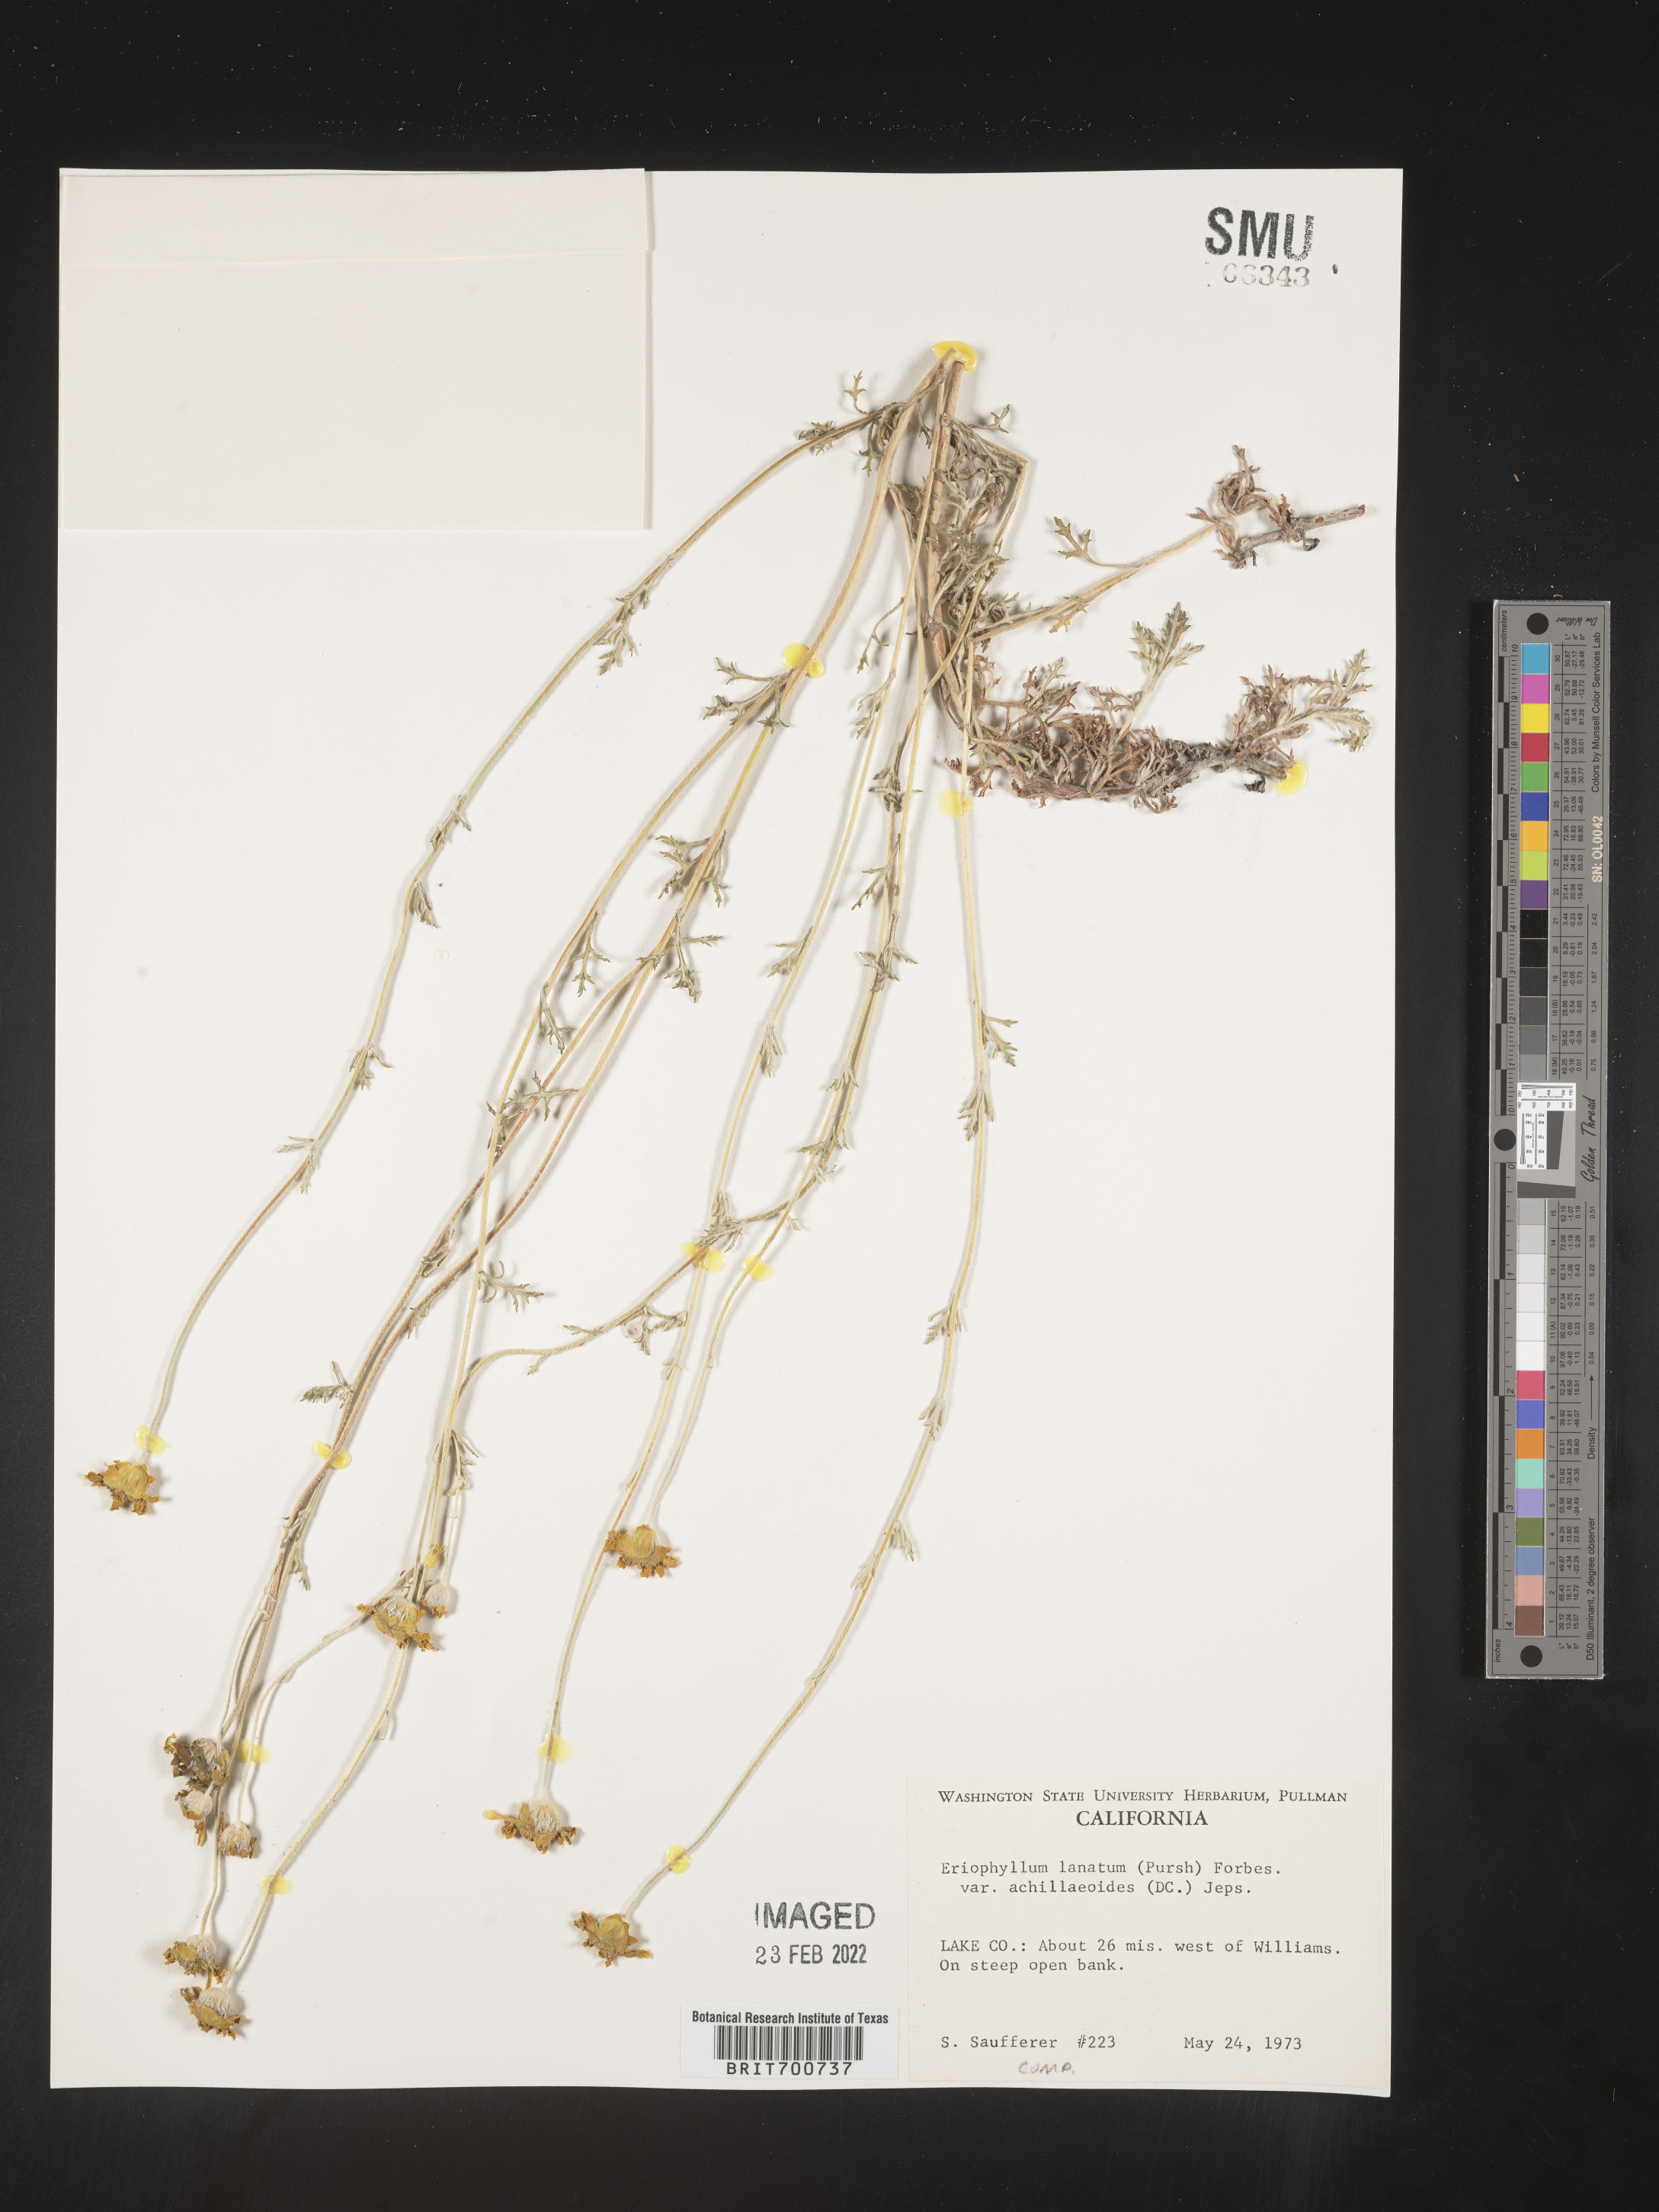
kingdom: Plantae
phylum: Tracheophyta
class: Magnoliopsida
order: Asterales
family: Asteraceae
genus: Eriophyllum
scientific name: Eriophyllum lanatum
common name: Common woolly-sunflower
